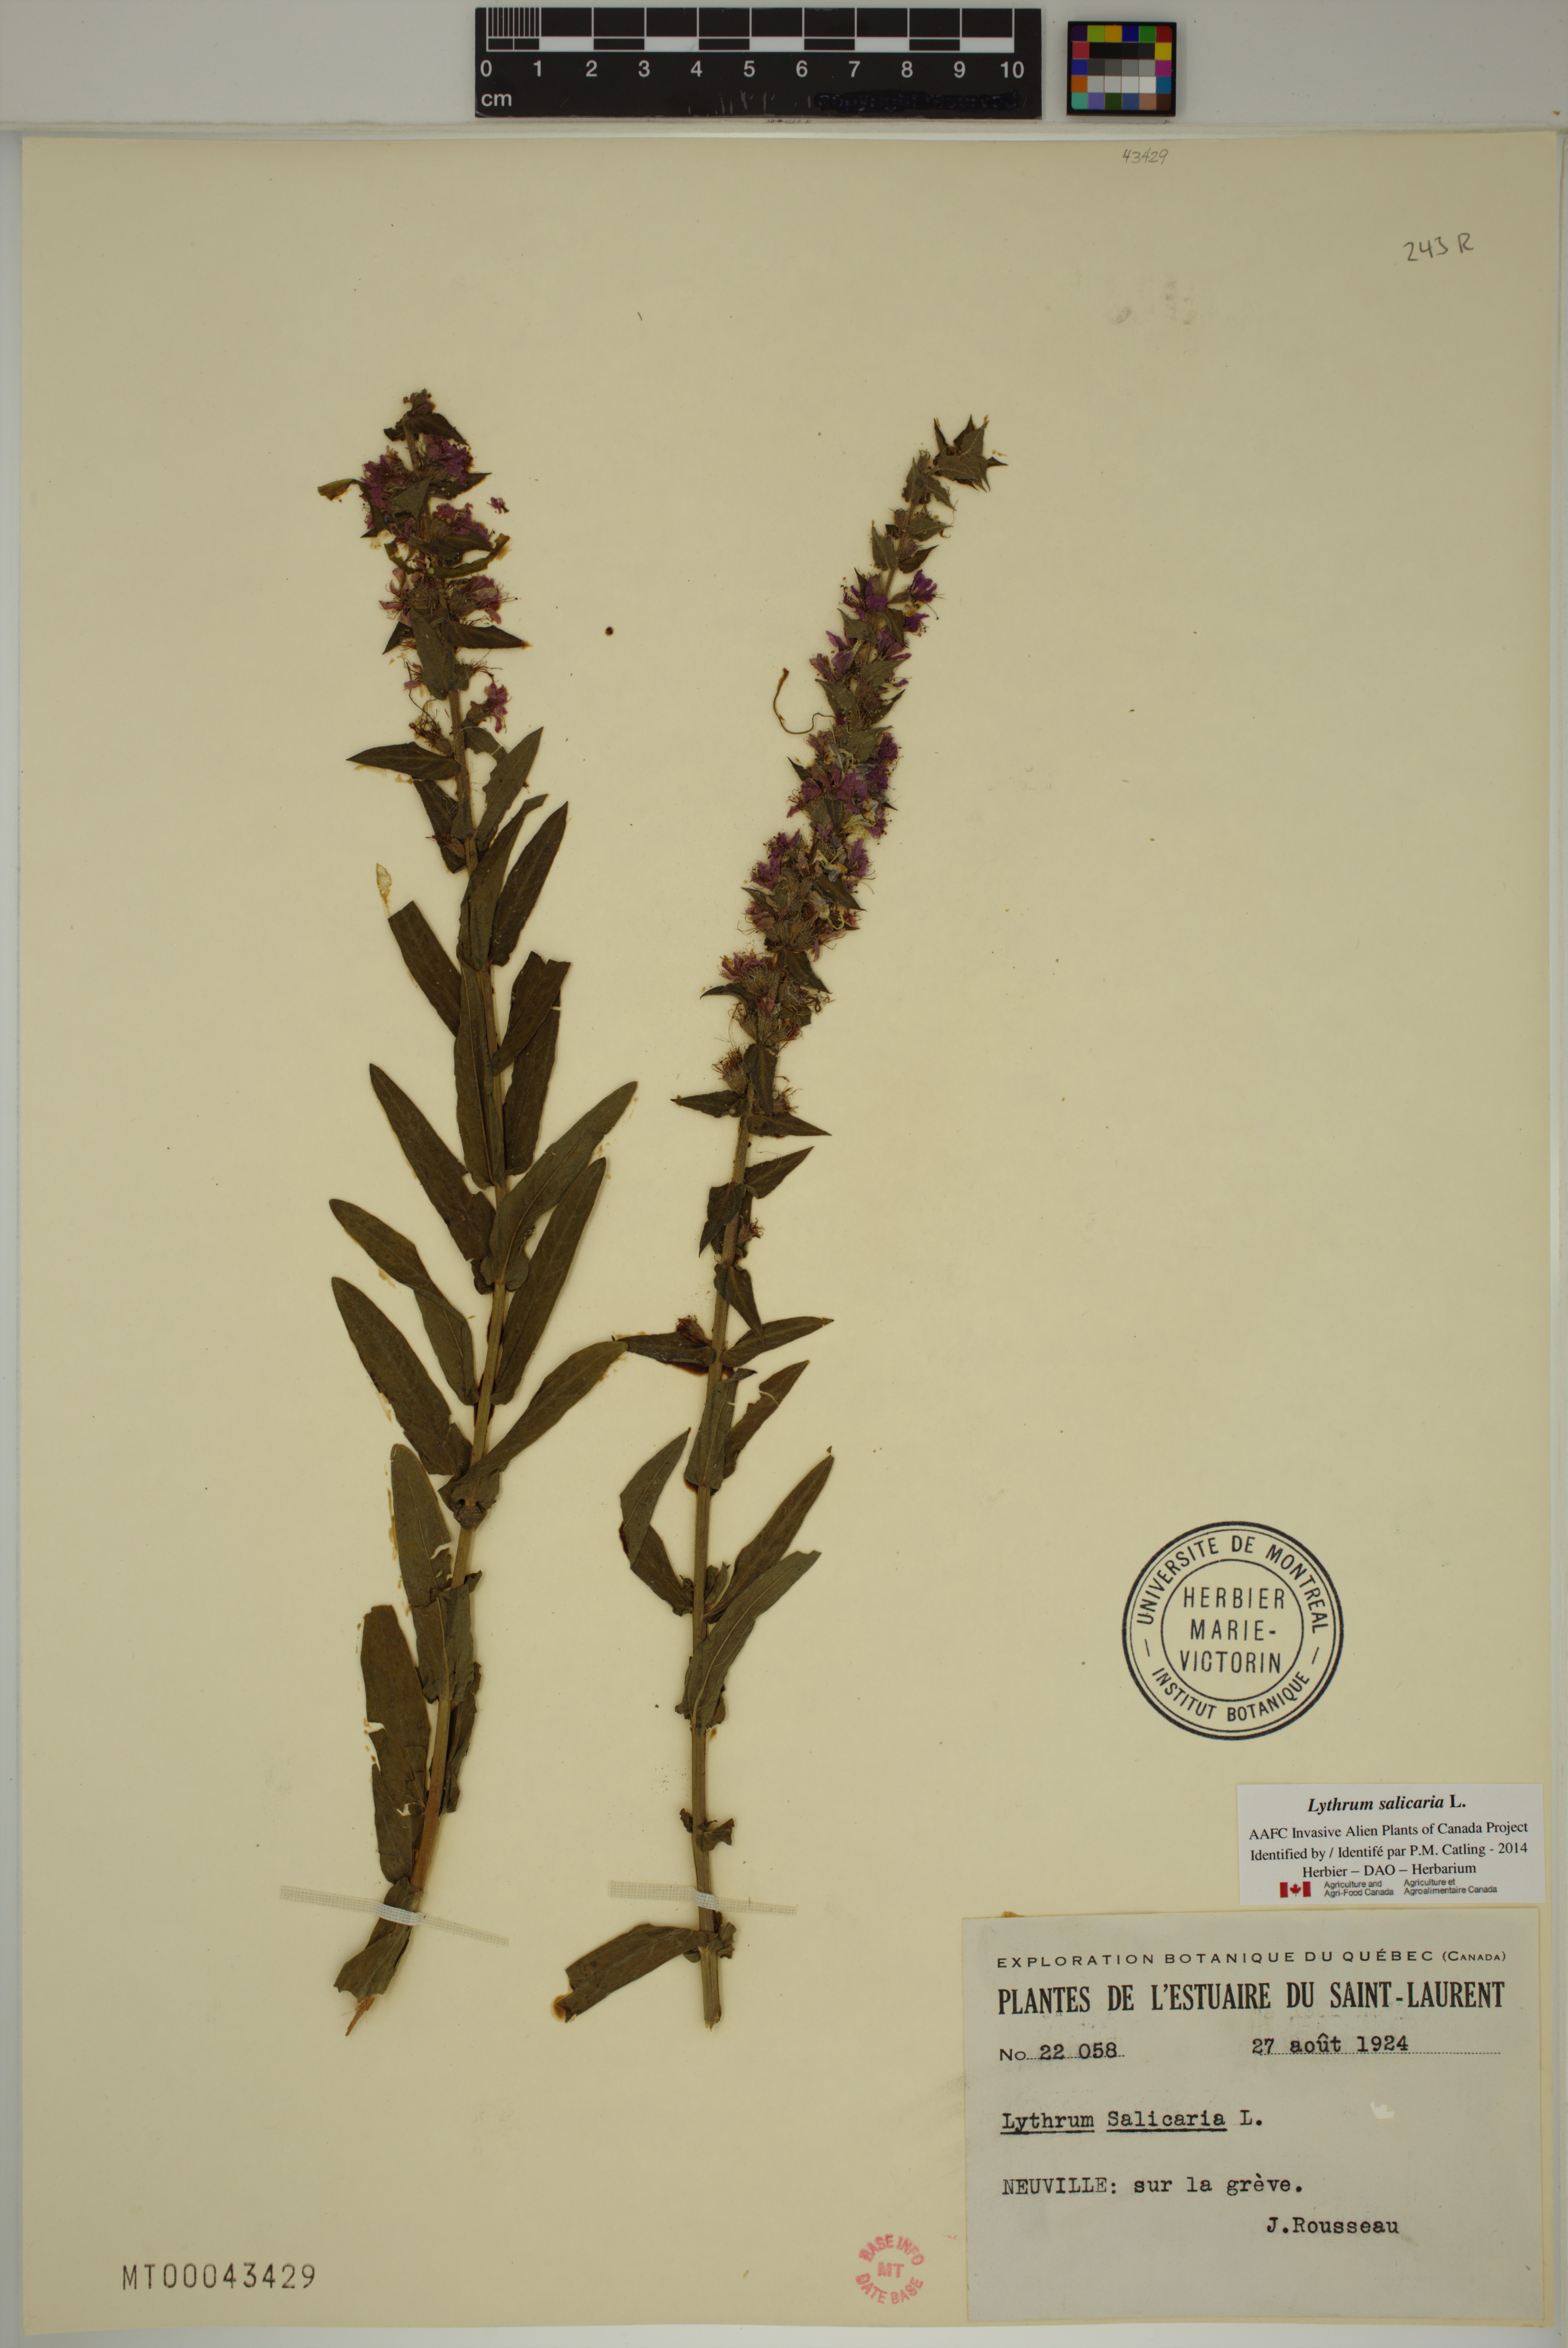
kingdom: Plantae
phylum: Tracheophyta
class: Magnoliopsida
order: Myrtales
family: Lythraceae
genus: Lythrum
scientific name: Lythrum salicaria
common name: Purple loosestrife
